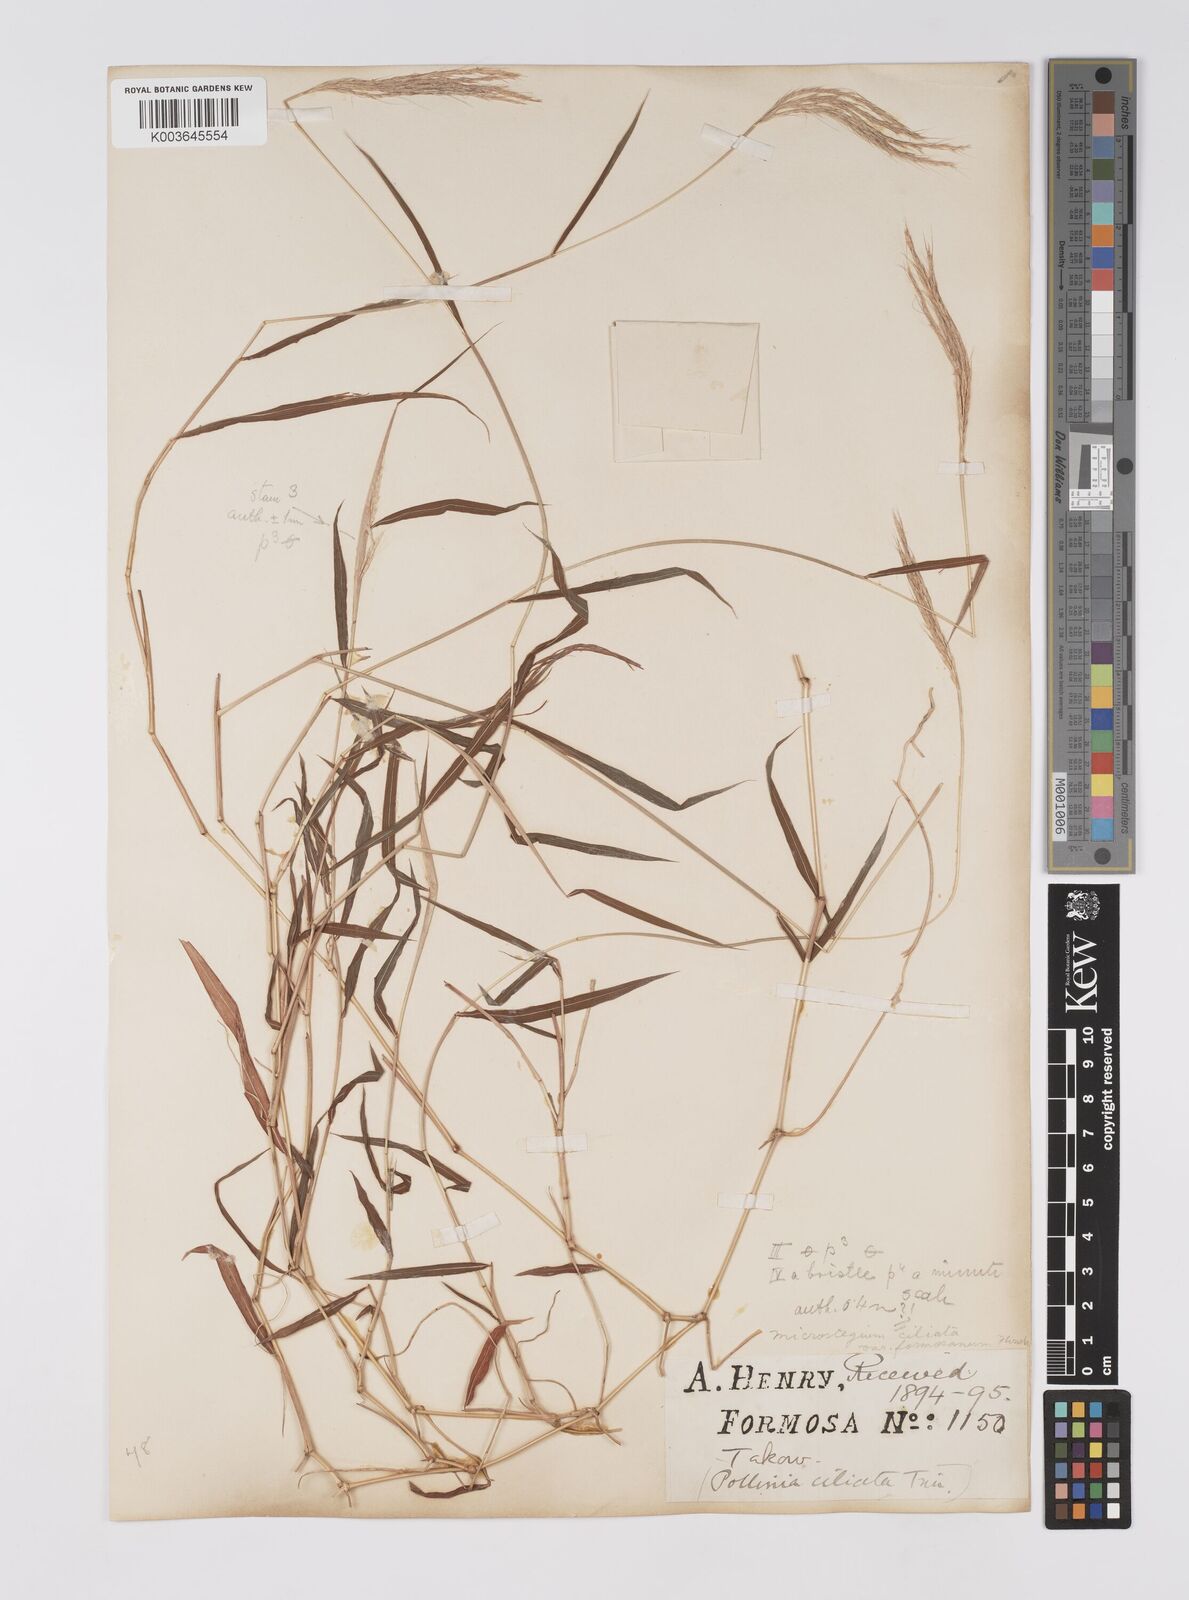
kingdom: Plantae
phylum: Tracheophyta
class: Liliopsida
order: Poales
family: Poaceae
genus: Microstegium
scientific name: Microstegium fasciculatum
